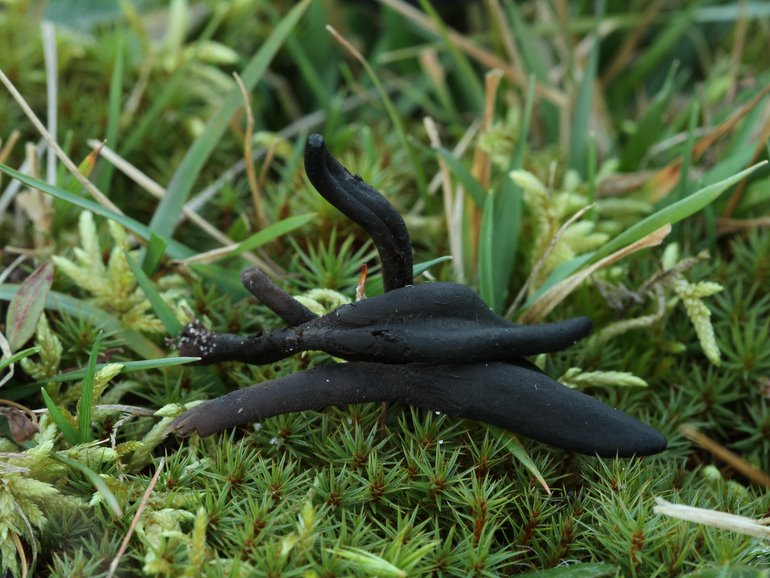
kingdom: Fungi
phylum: Ascomycota
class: Geoglossomycetes
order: Geoglossales
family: Geoglossaceae
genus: Hemileucoglossum
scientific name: Hemileucoglossum elongatum
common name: småsporet jordtunge
